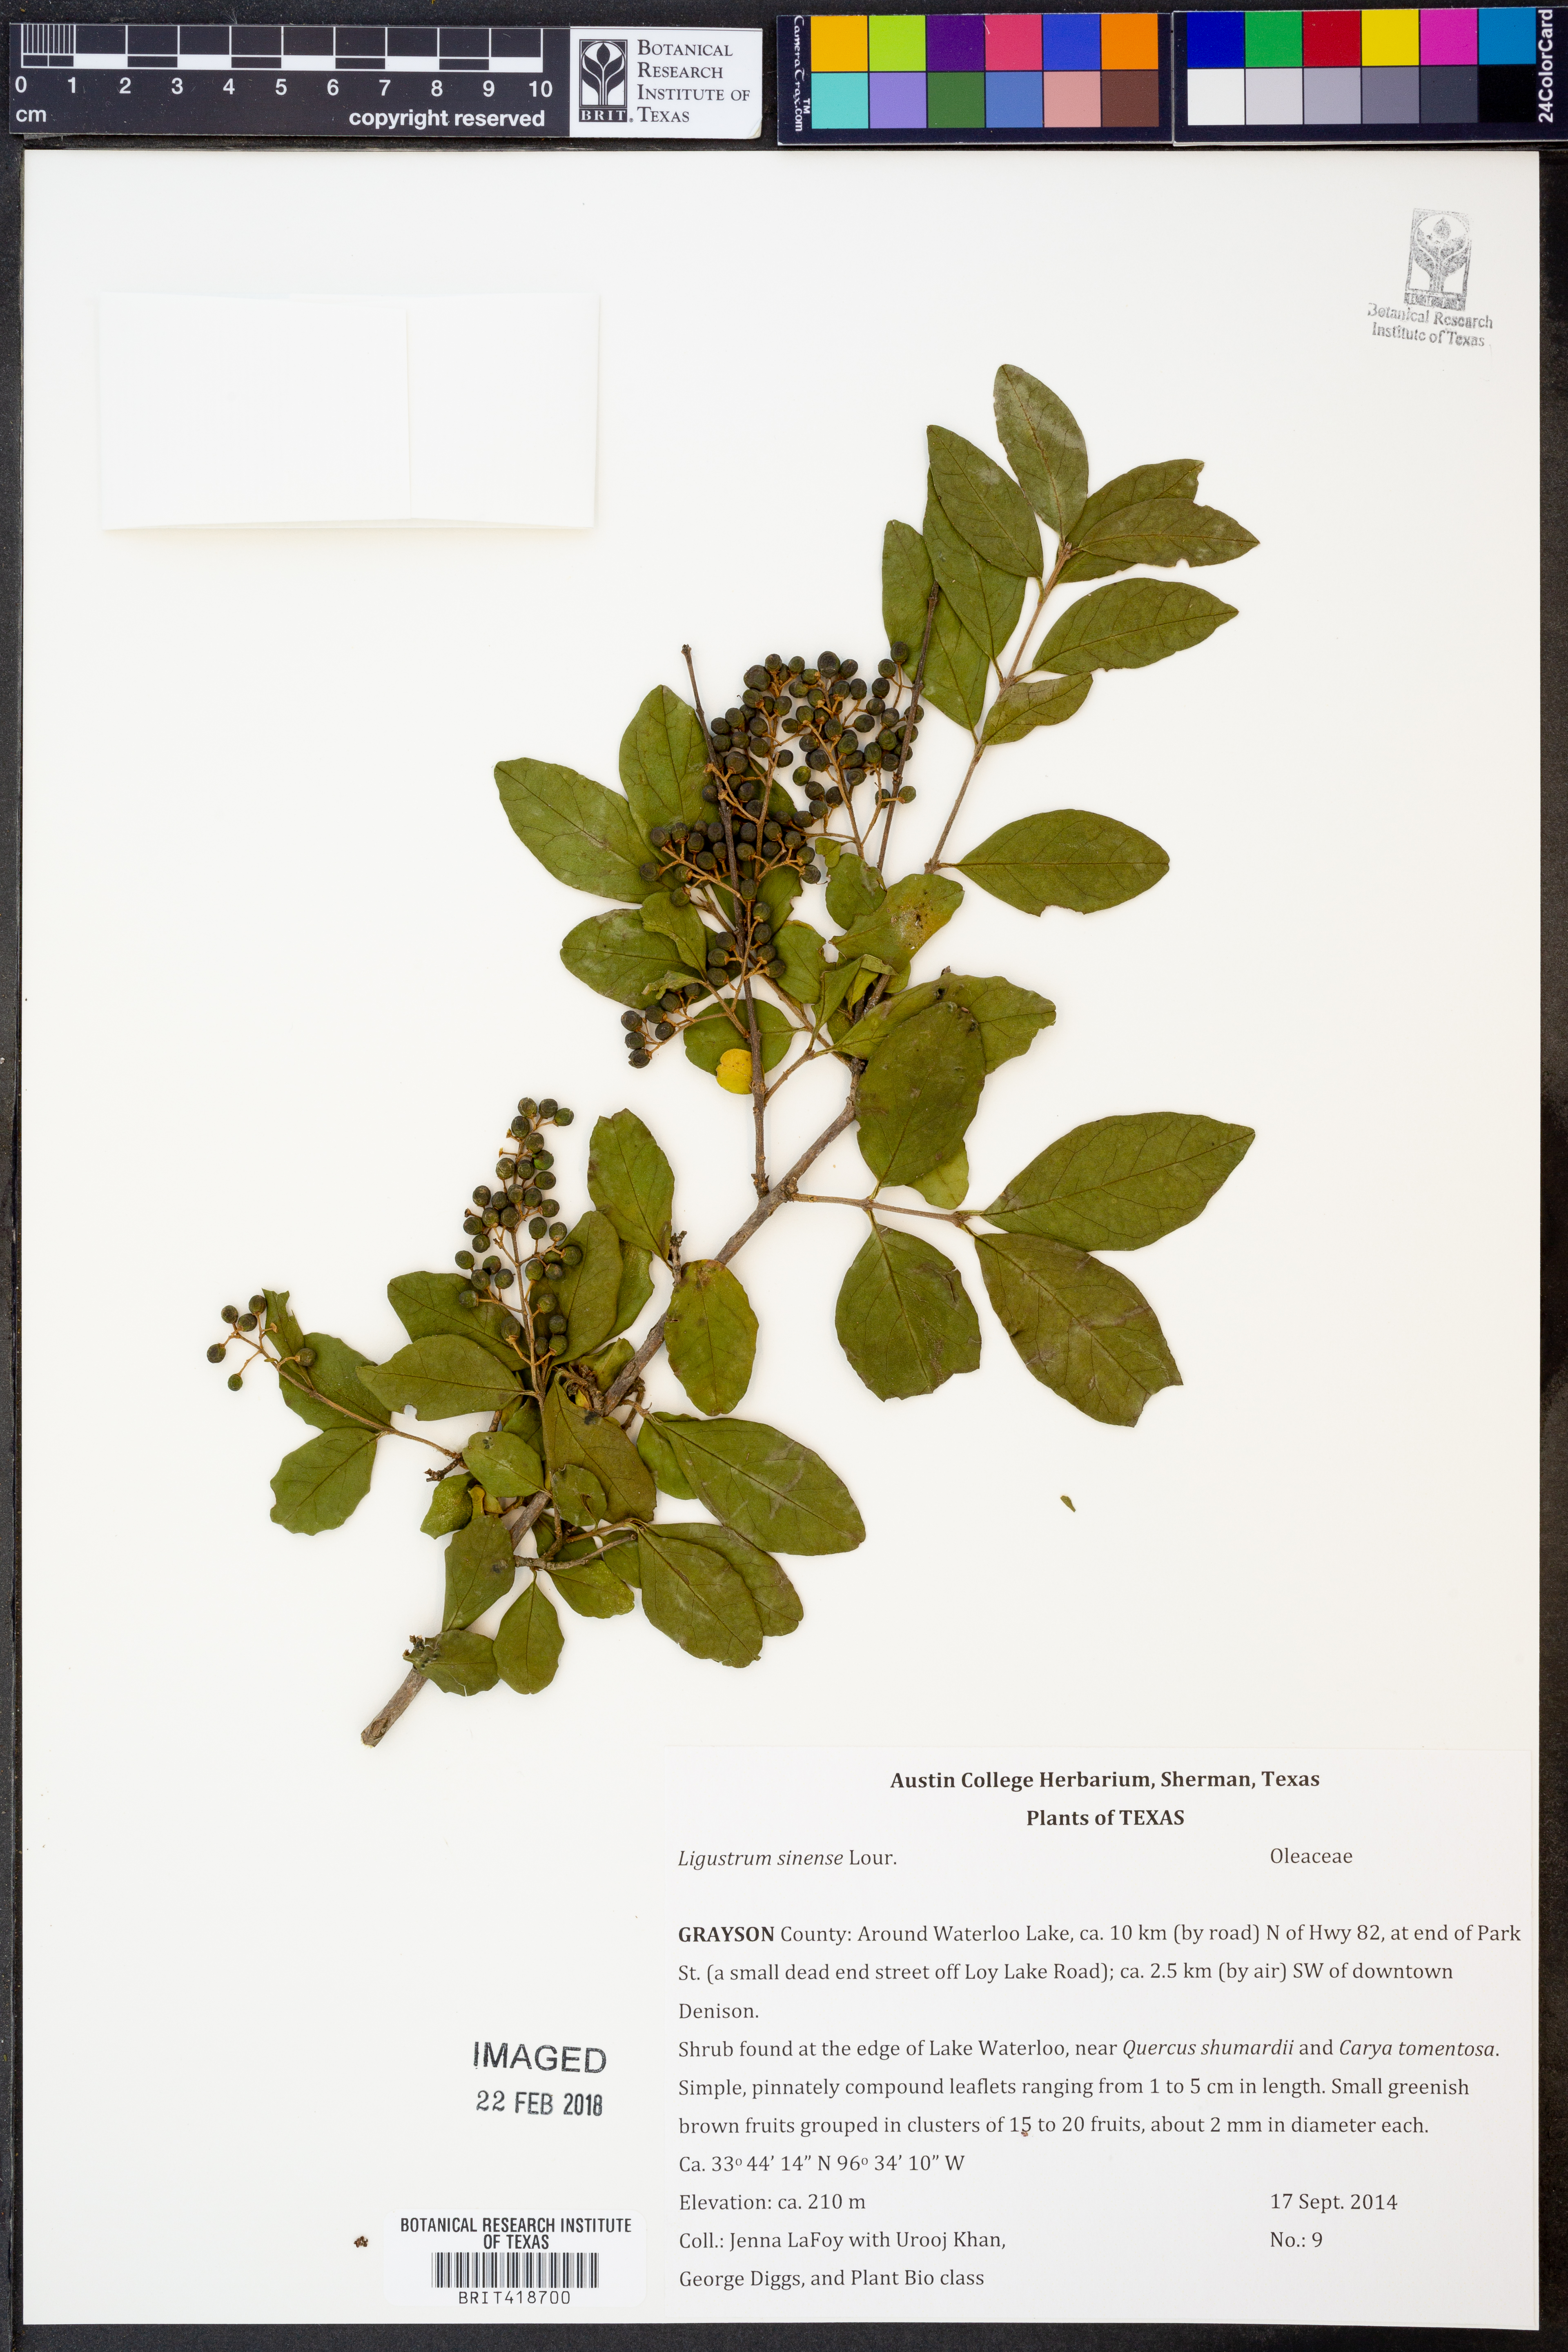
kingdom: Plantae
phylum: Tracheophyta
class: Magnoliopsida
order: Lamiales
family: Oleaceae
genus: Ligustrum
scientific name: Ligustrum sinense
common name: Chinese privet
